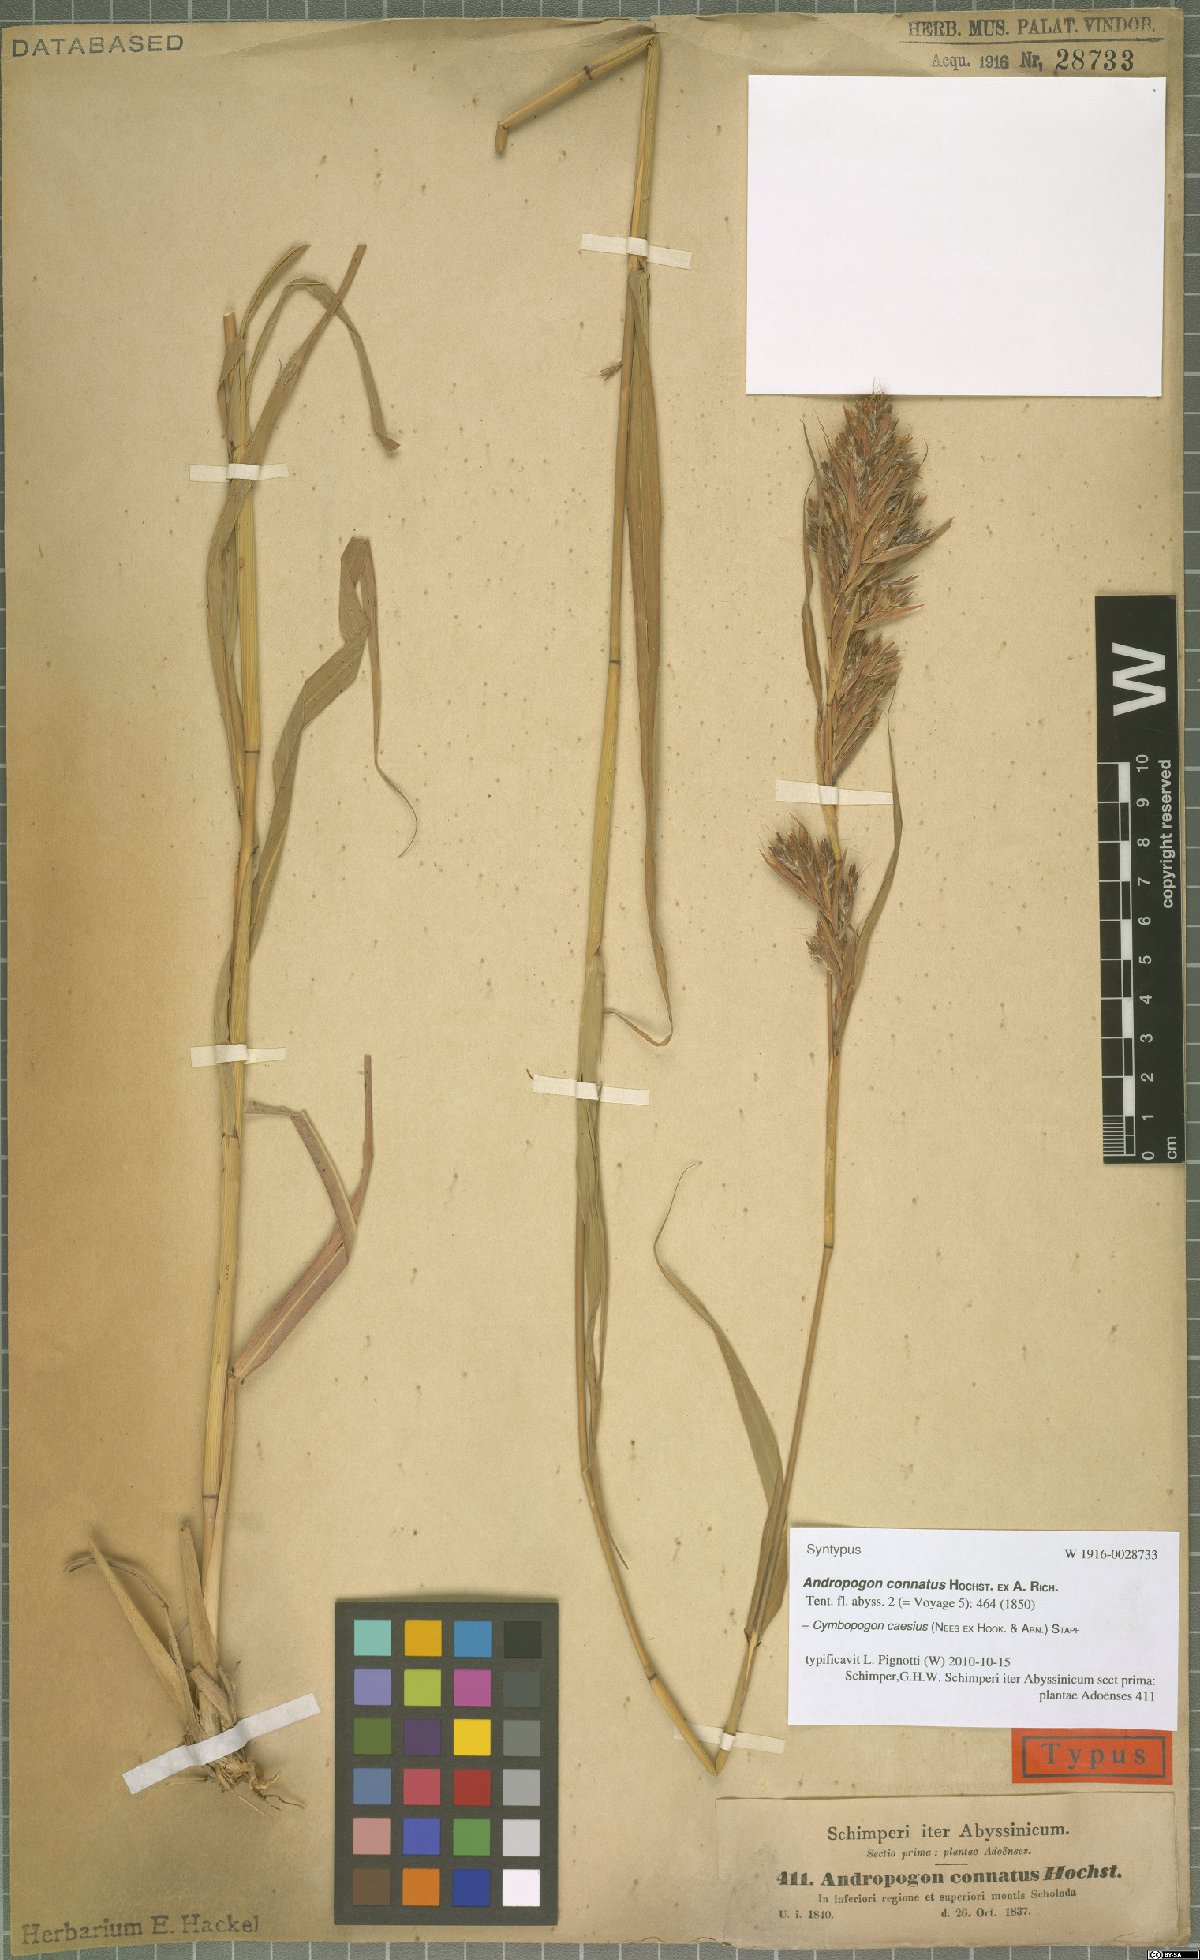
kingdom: Plantae
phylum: Tracheophyta
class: Liliopsida
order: Poales
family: Poaceae
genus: Cymbopogon
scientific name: Cymbopogon caesius
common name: Kachi grass
